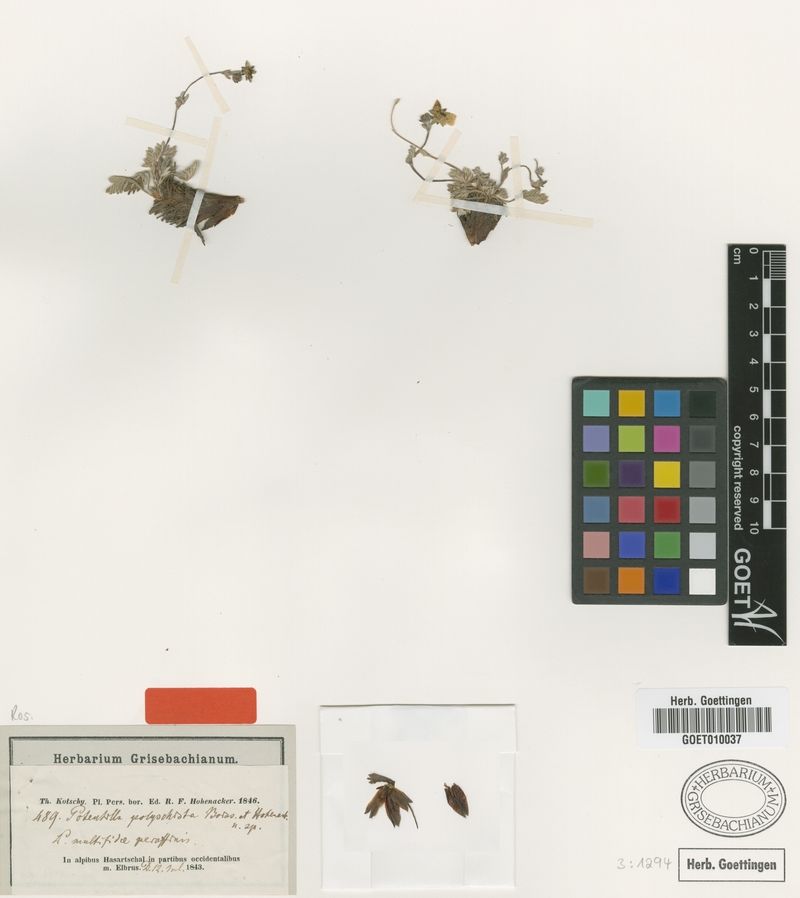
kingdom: Plantae
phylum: Tracheophyta
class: Magnoliopsida
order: Rosales
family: Rosaceae
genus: Potentilla
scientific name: Potentilla sericea
